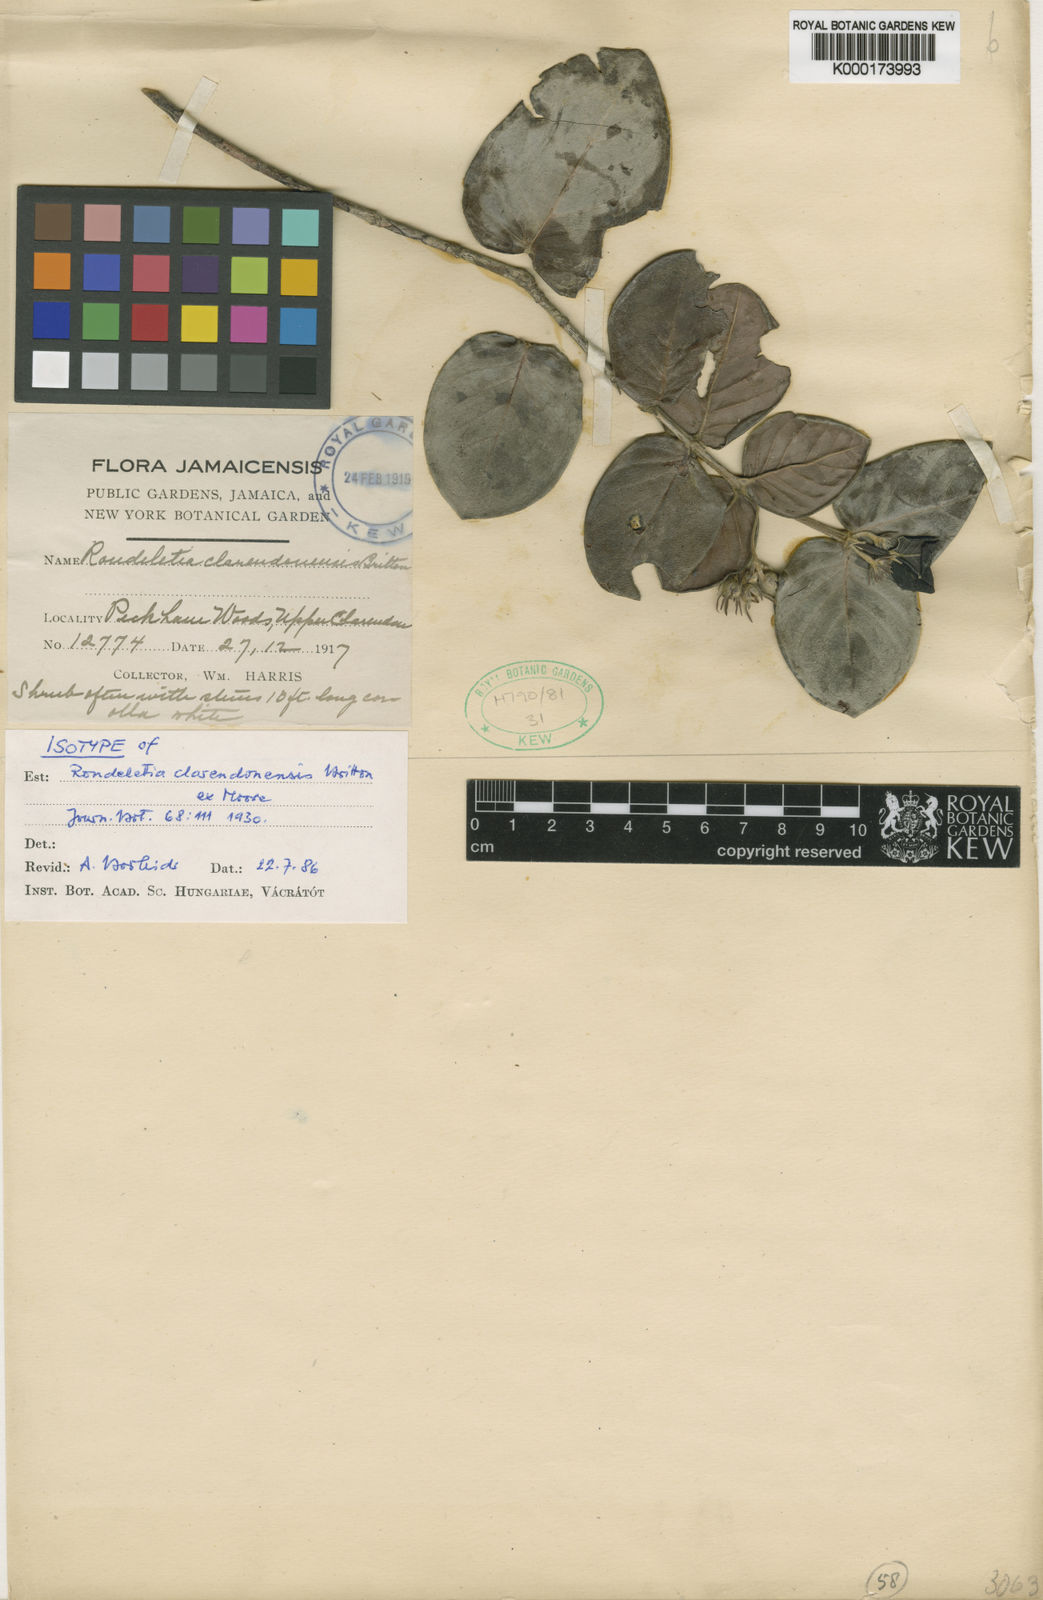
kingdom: Plantae
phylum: Tracheophyta
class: Magnoliopsida
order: Gentianales
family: Rubiaceae
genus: Rondeletia
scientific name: Rondeletia clarendonensis
